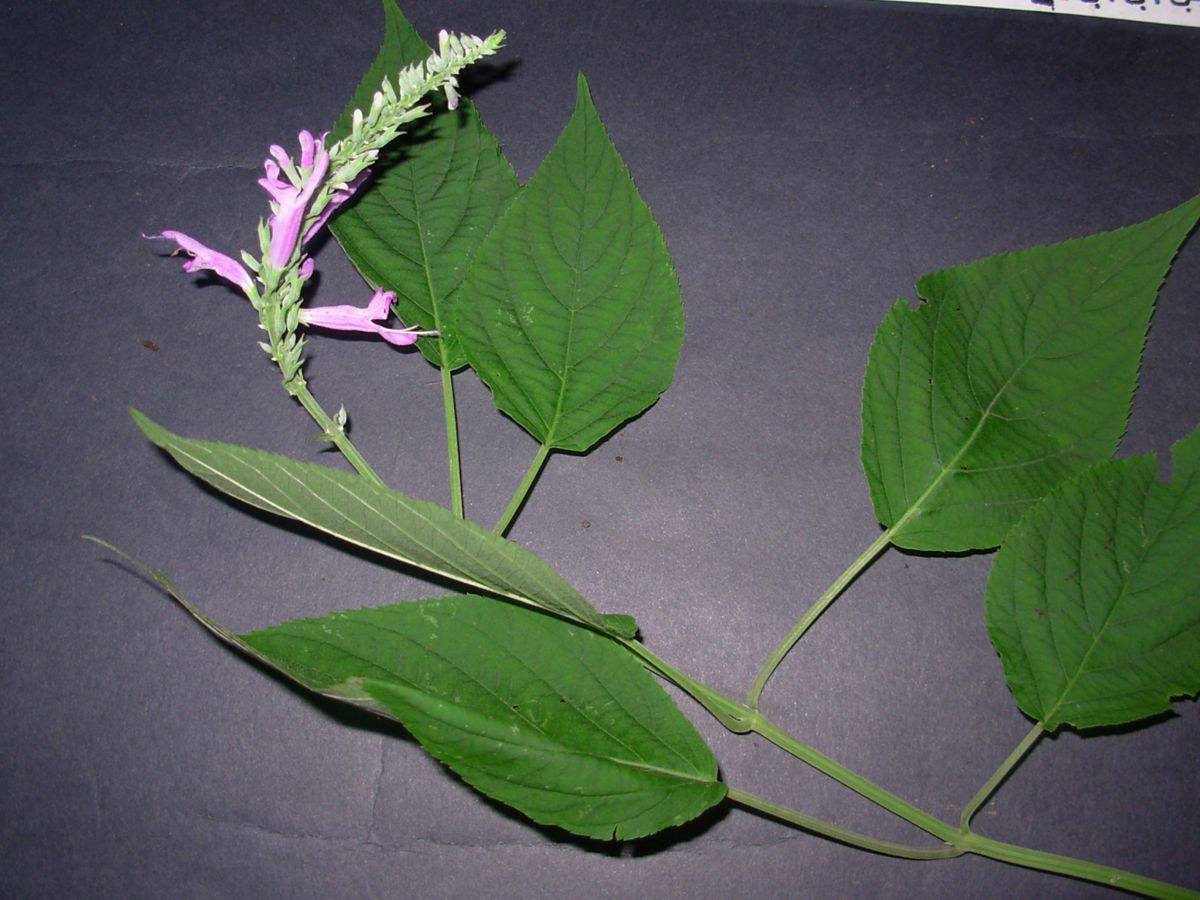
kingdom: Plantae
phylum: Tracheophyta
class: Magnoliopsida
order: Lamiales
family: Lamiaceae
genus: Salvia
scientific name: Salvia purpurea
